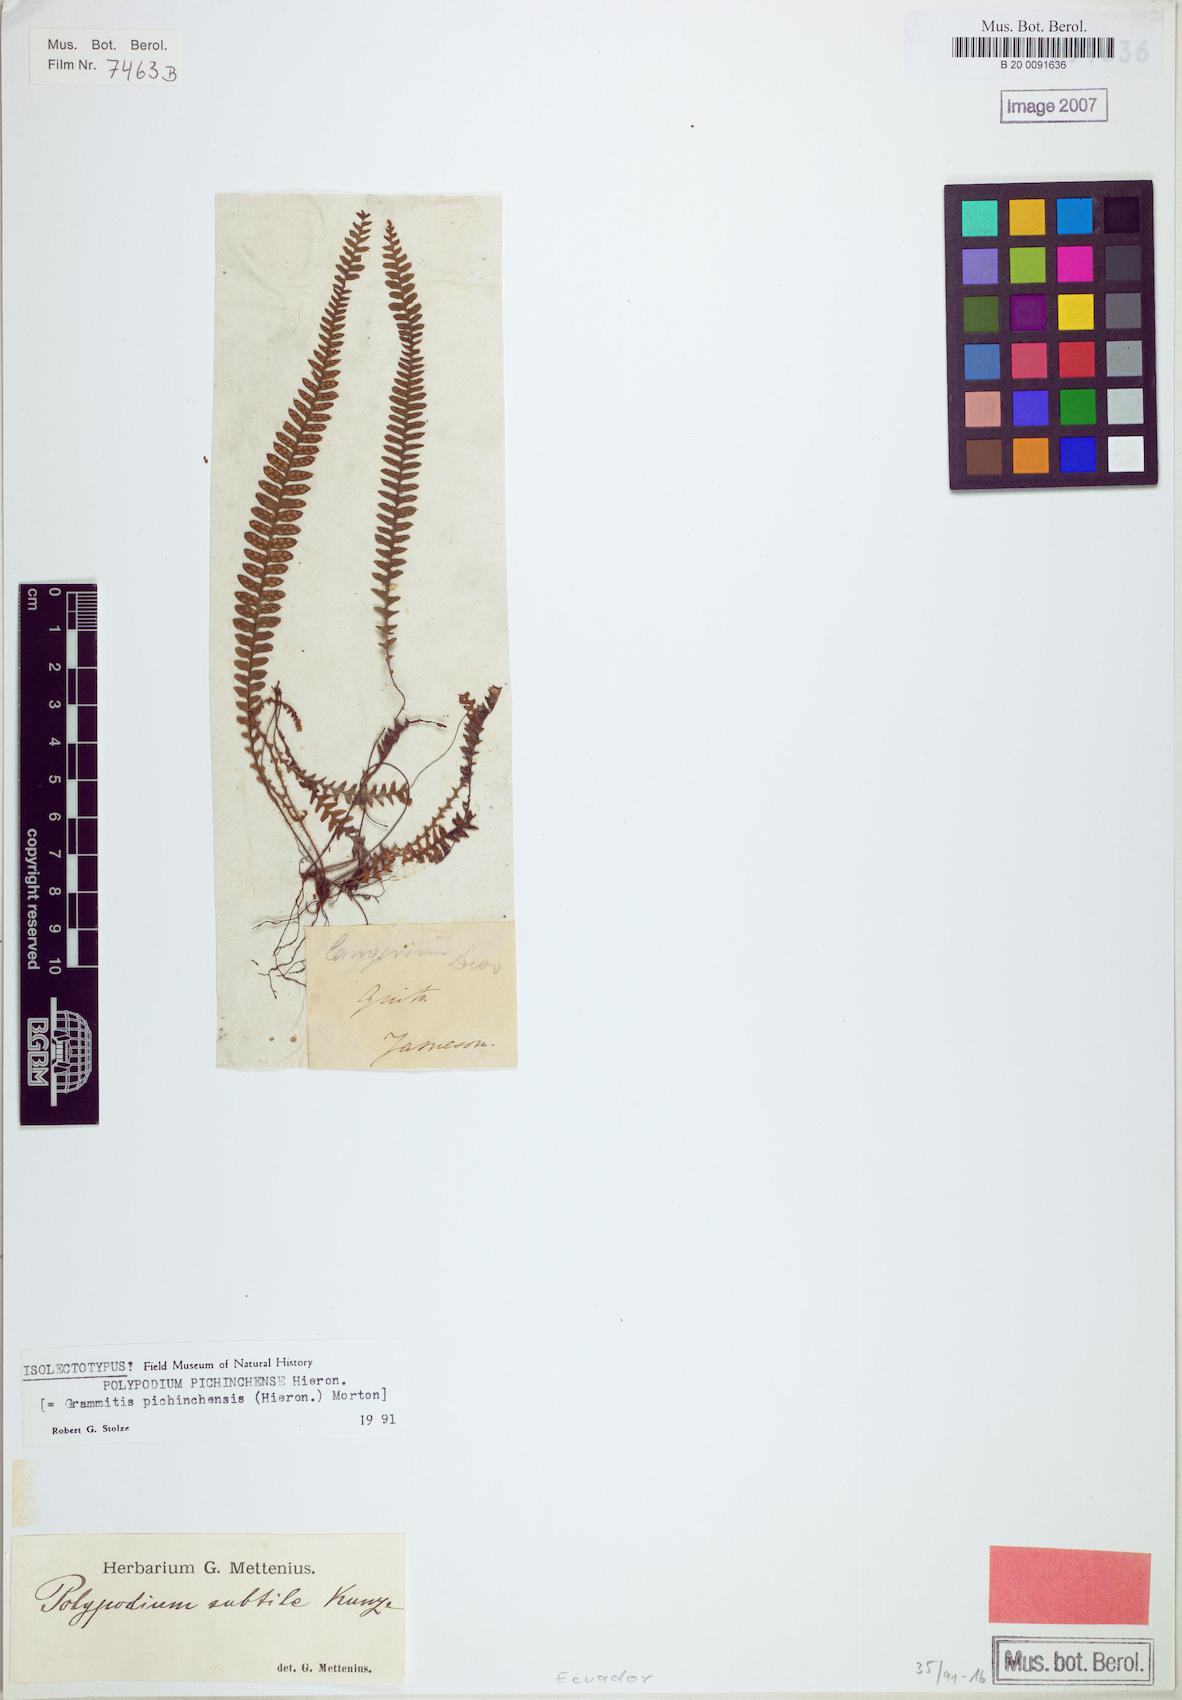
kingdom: Plantae
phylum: Tracheophyta
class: Polypodiopsida
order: Polypodiales
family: Polypodiaceae
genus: Ascogrammitis
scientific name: Ascogrammitis pichinchensis
